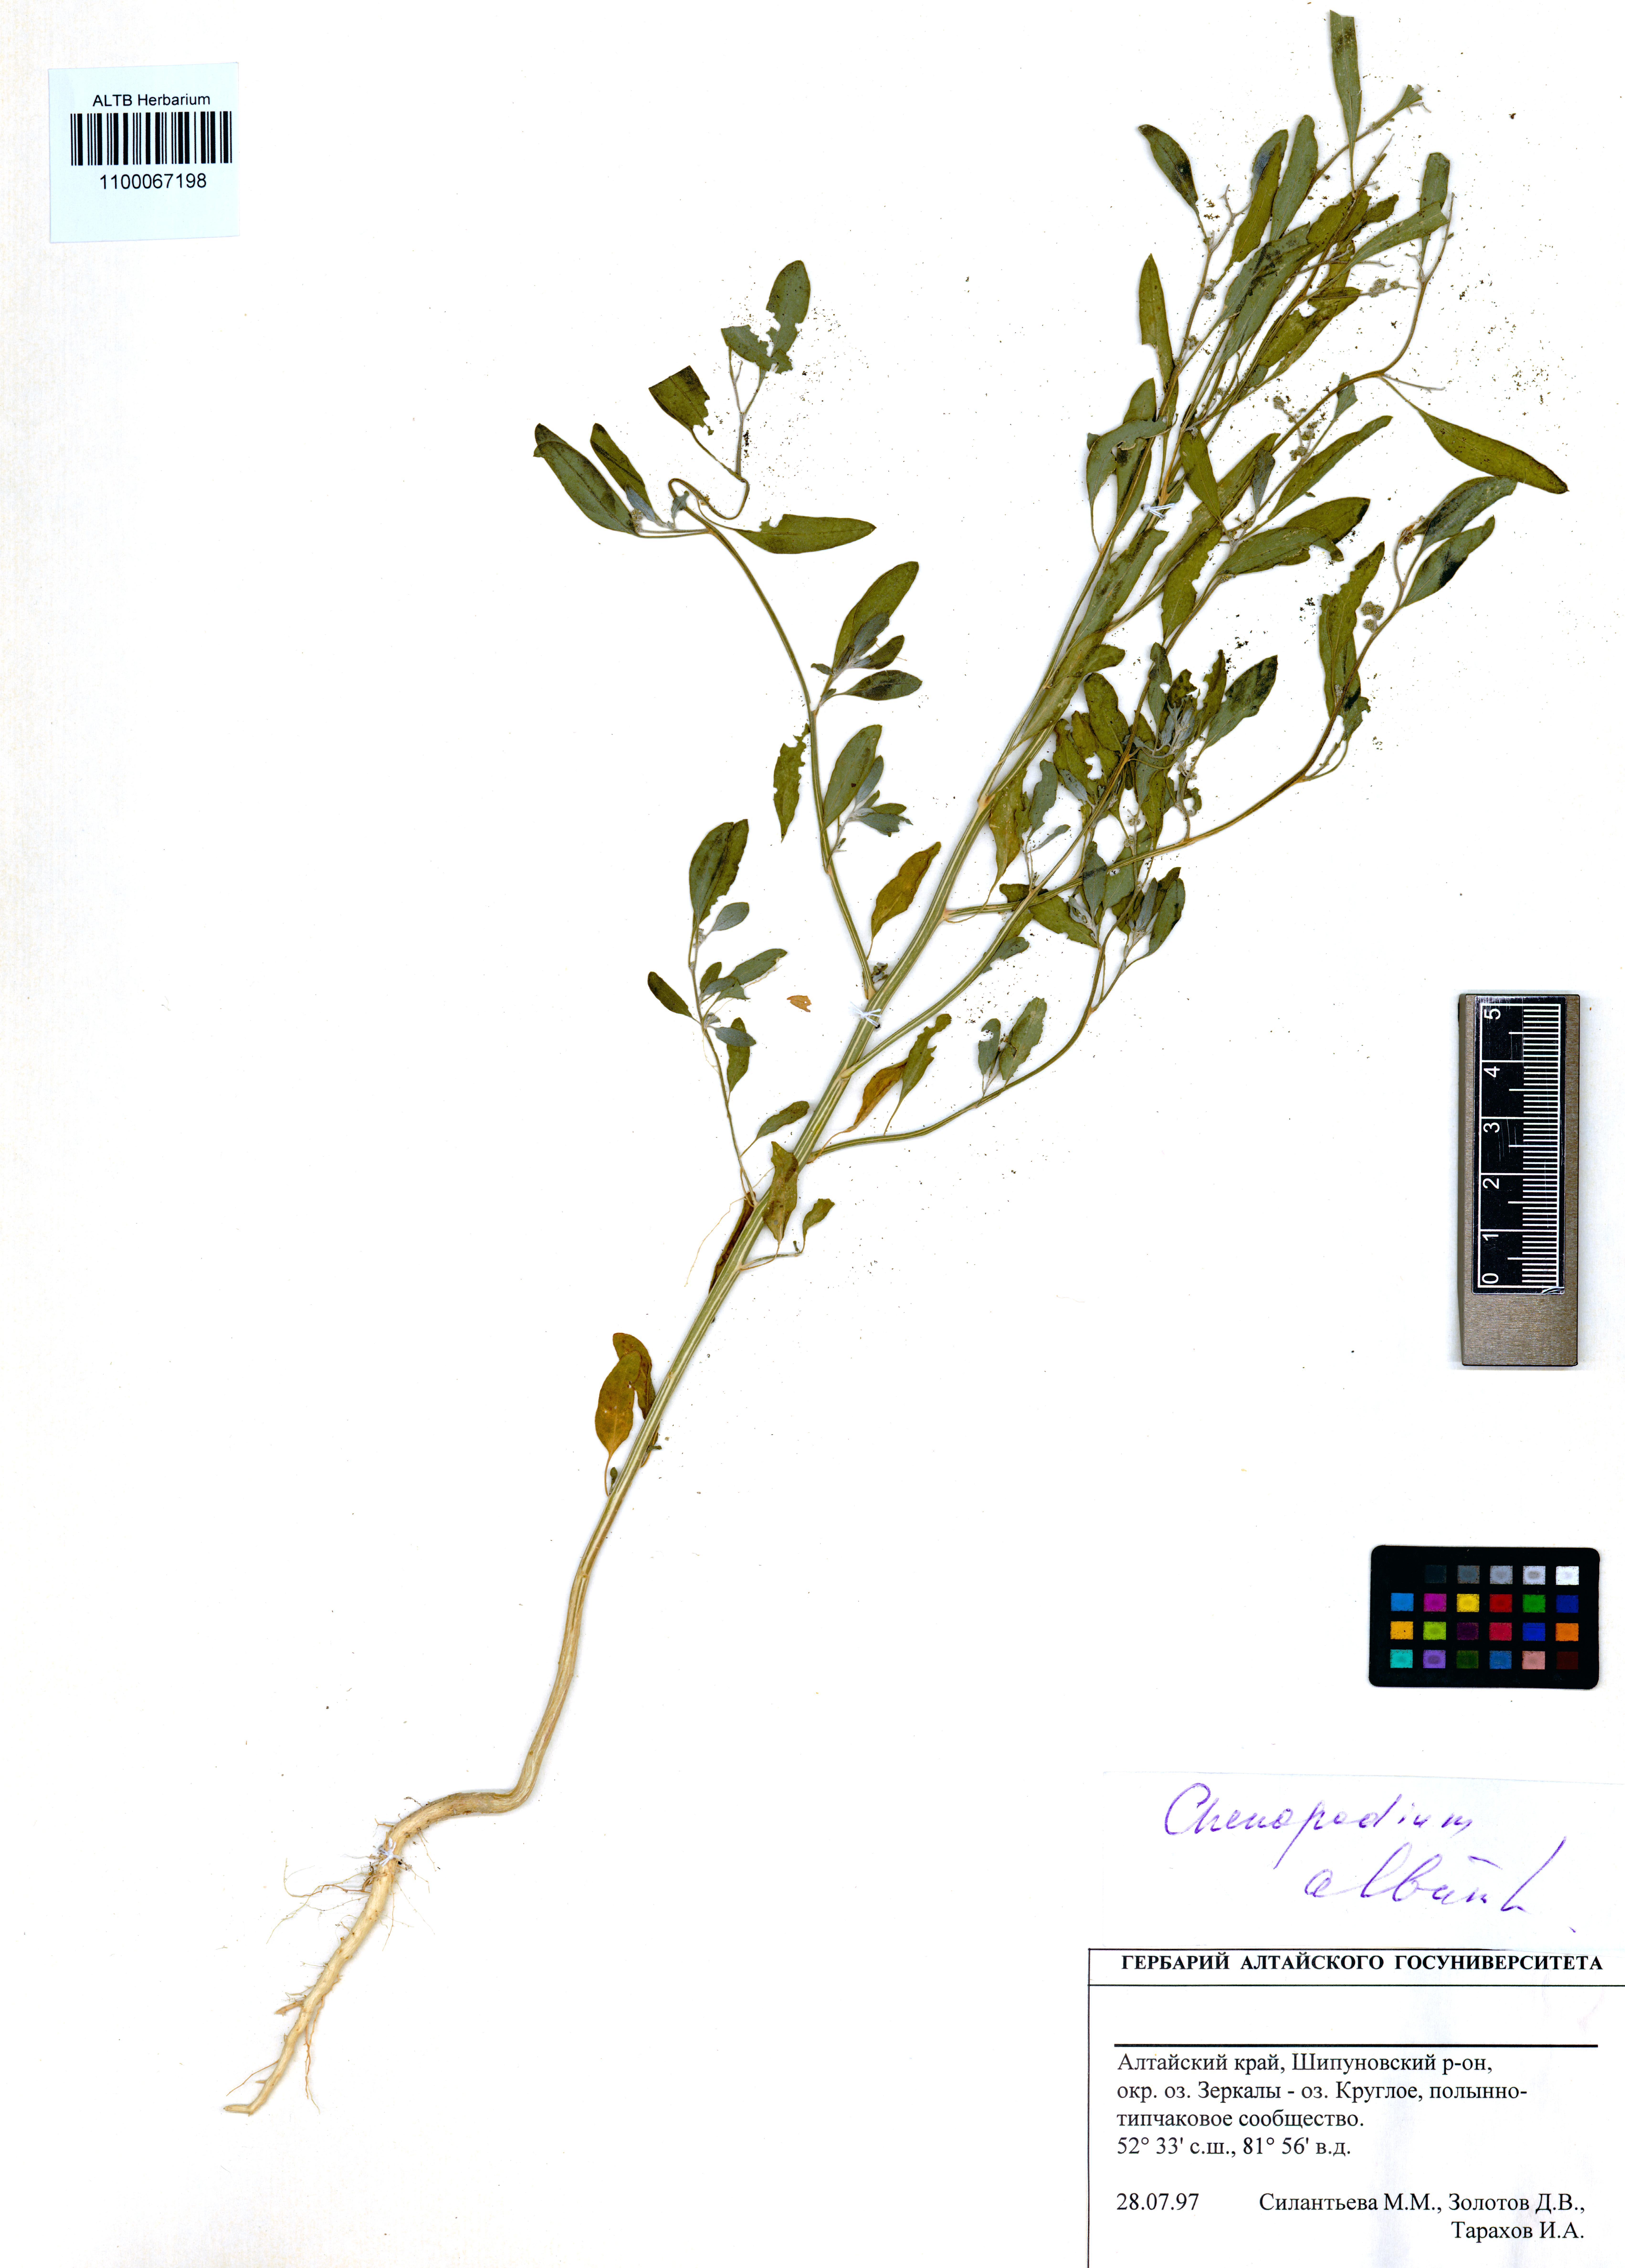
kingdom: Plantae
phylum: Tracheophyta
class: Magnoliopsida
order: Caryophyllales
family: Amaranthaceae
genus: Chenopodium
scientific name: Chenopodium album
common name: Fat-hen
